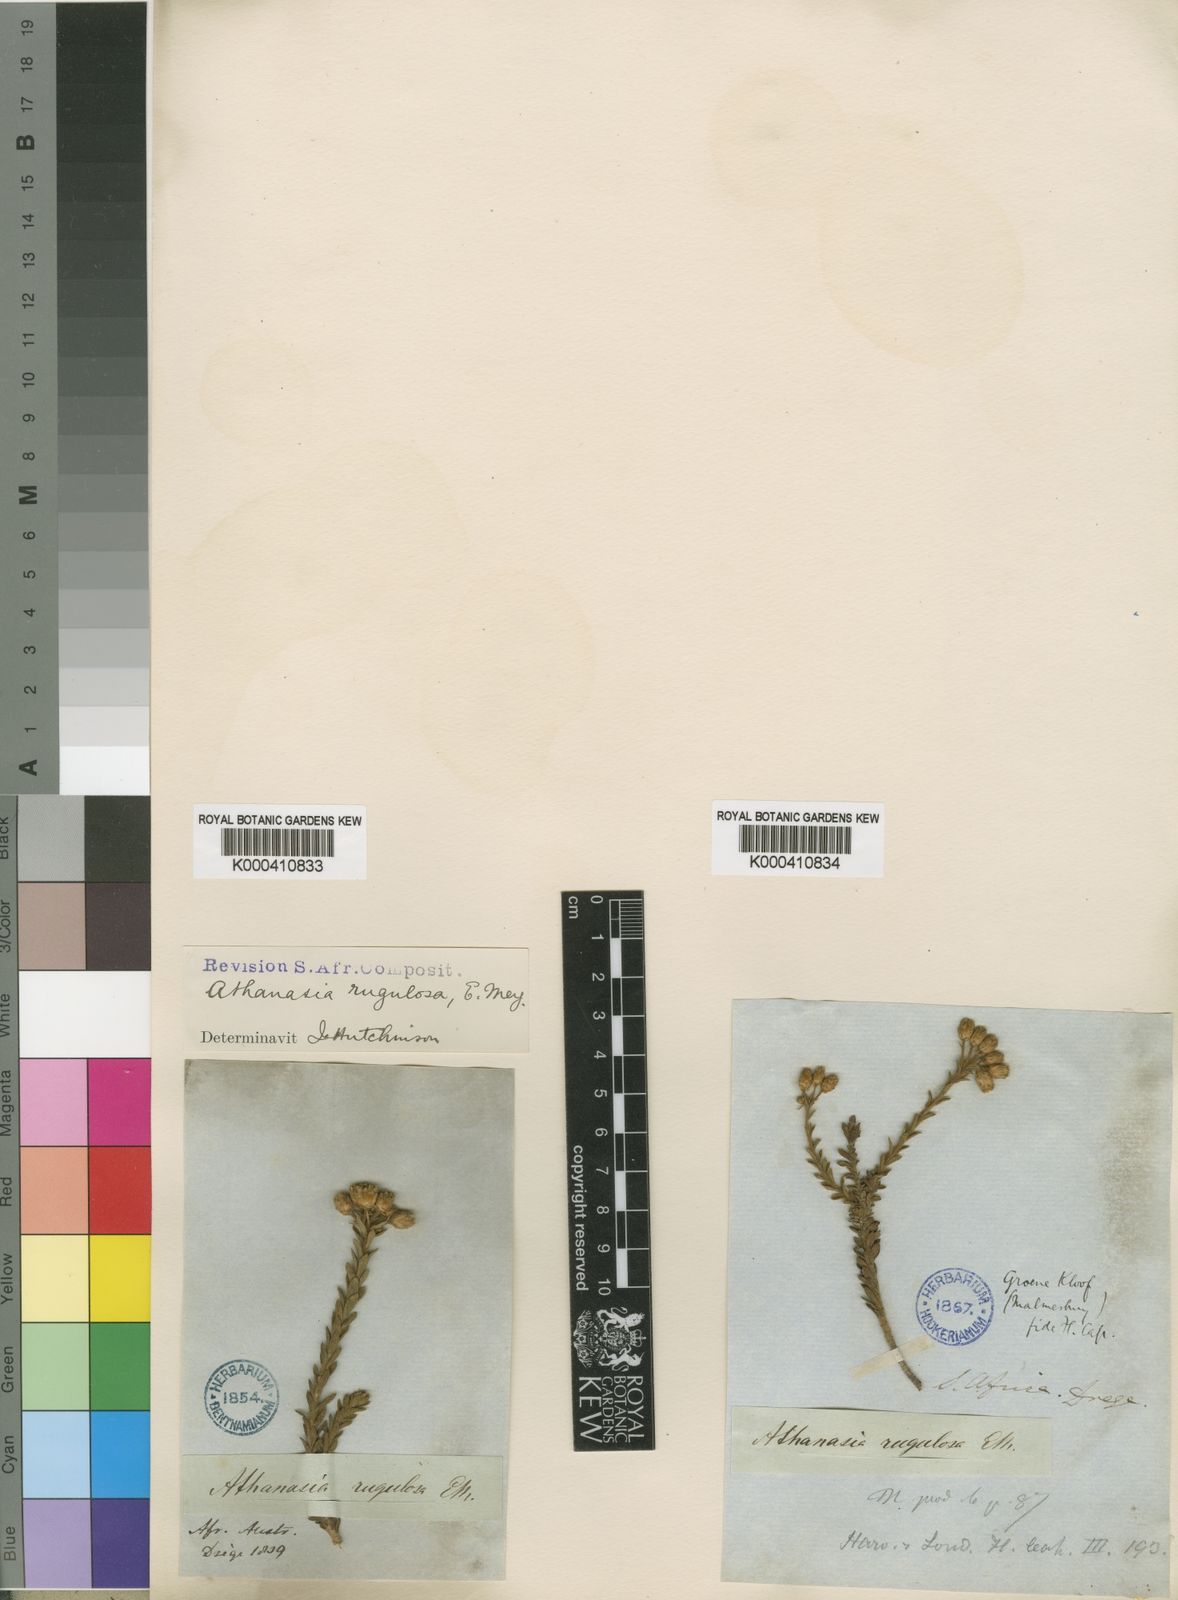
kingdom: Plantae
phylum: Tracheophyta
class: Magnoliopsida
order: Asterales
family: Asteraceae
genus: Athanasia
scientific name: Athanasia rugulosa
